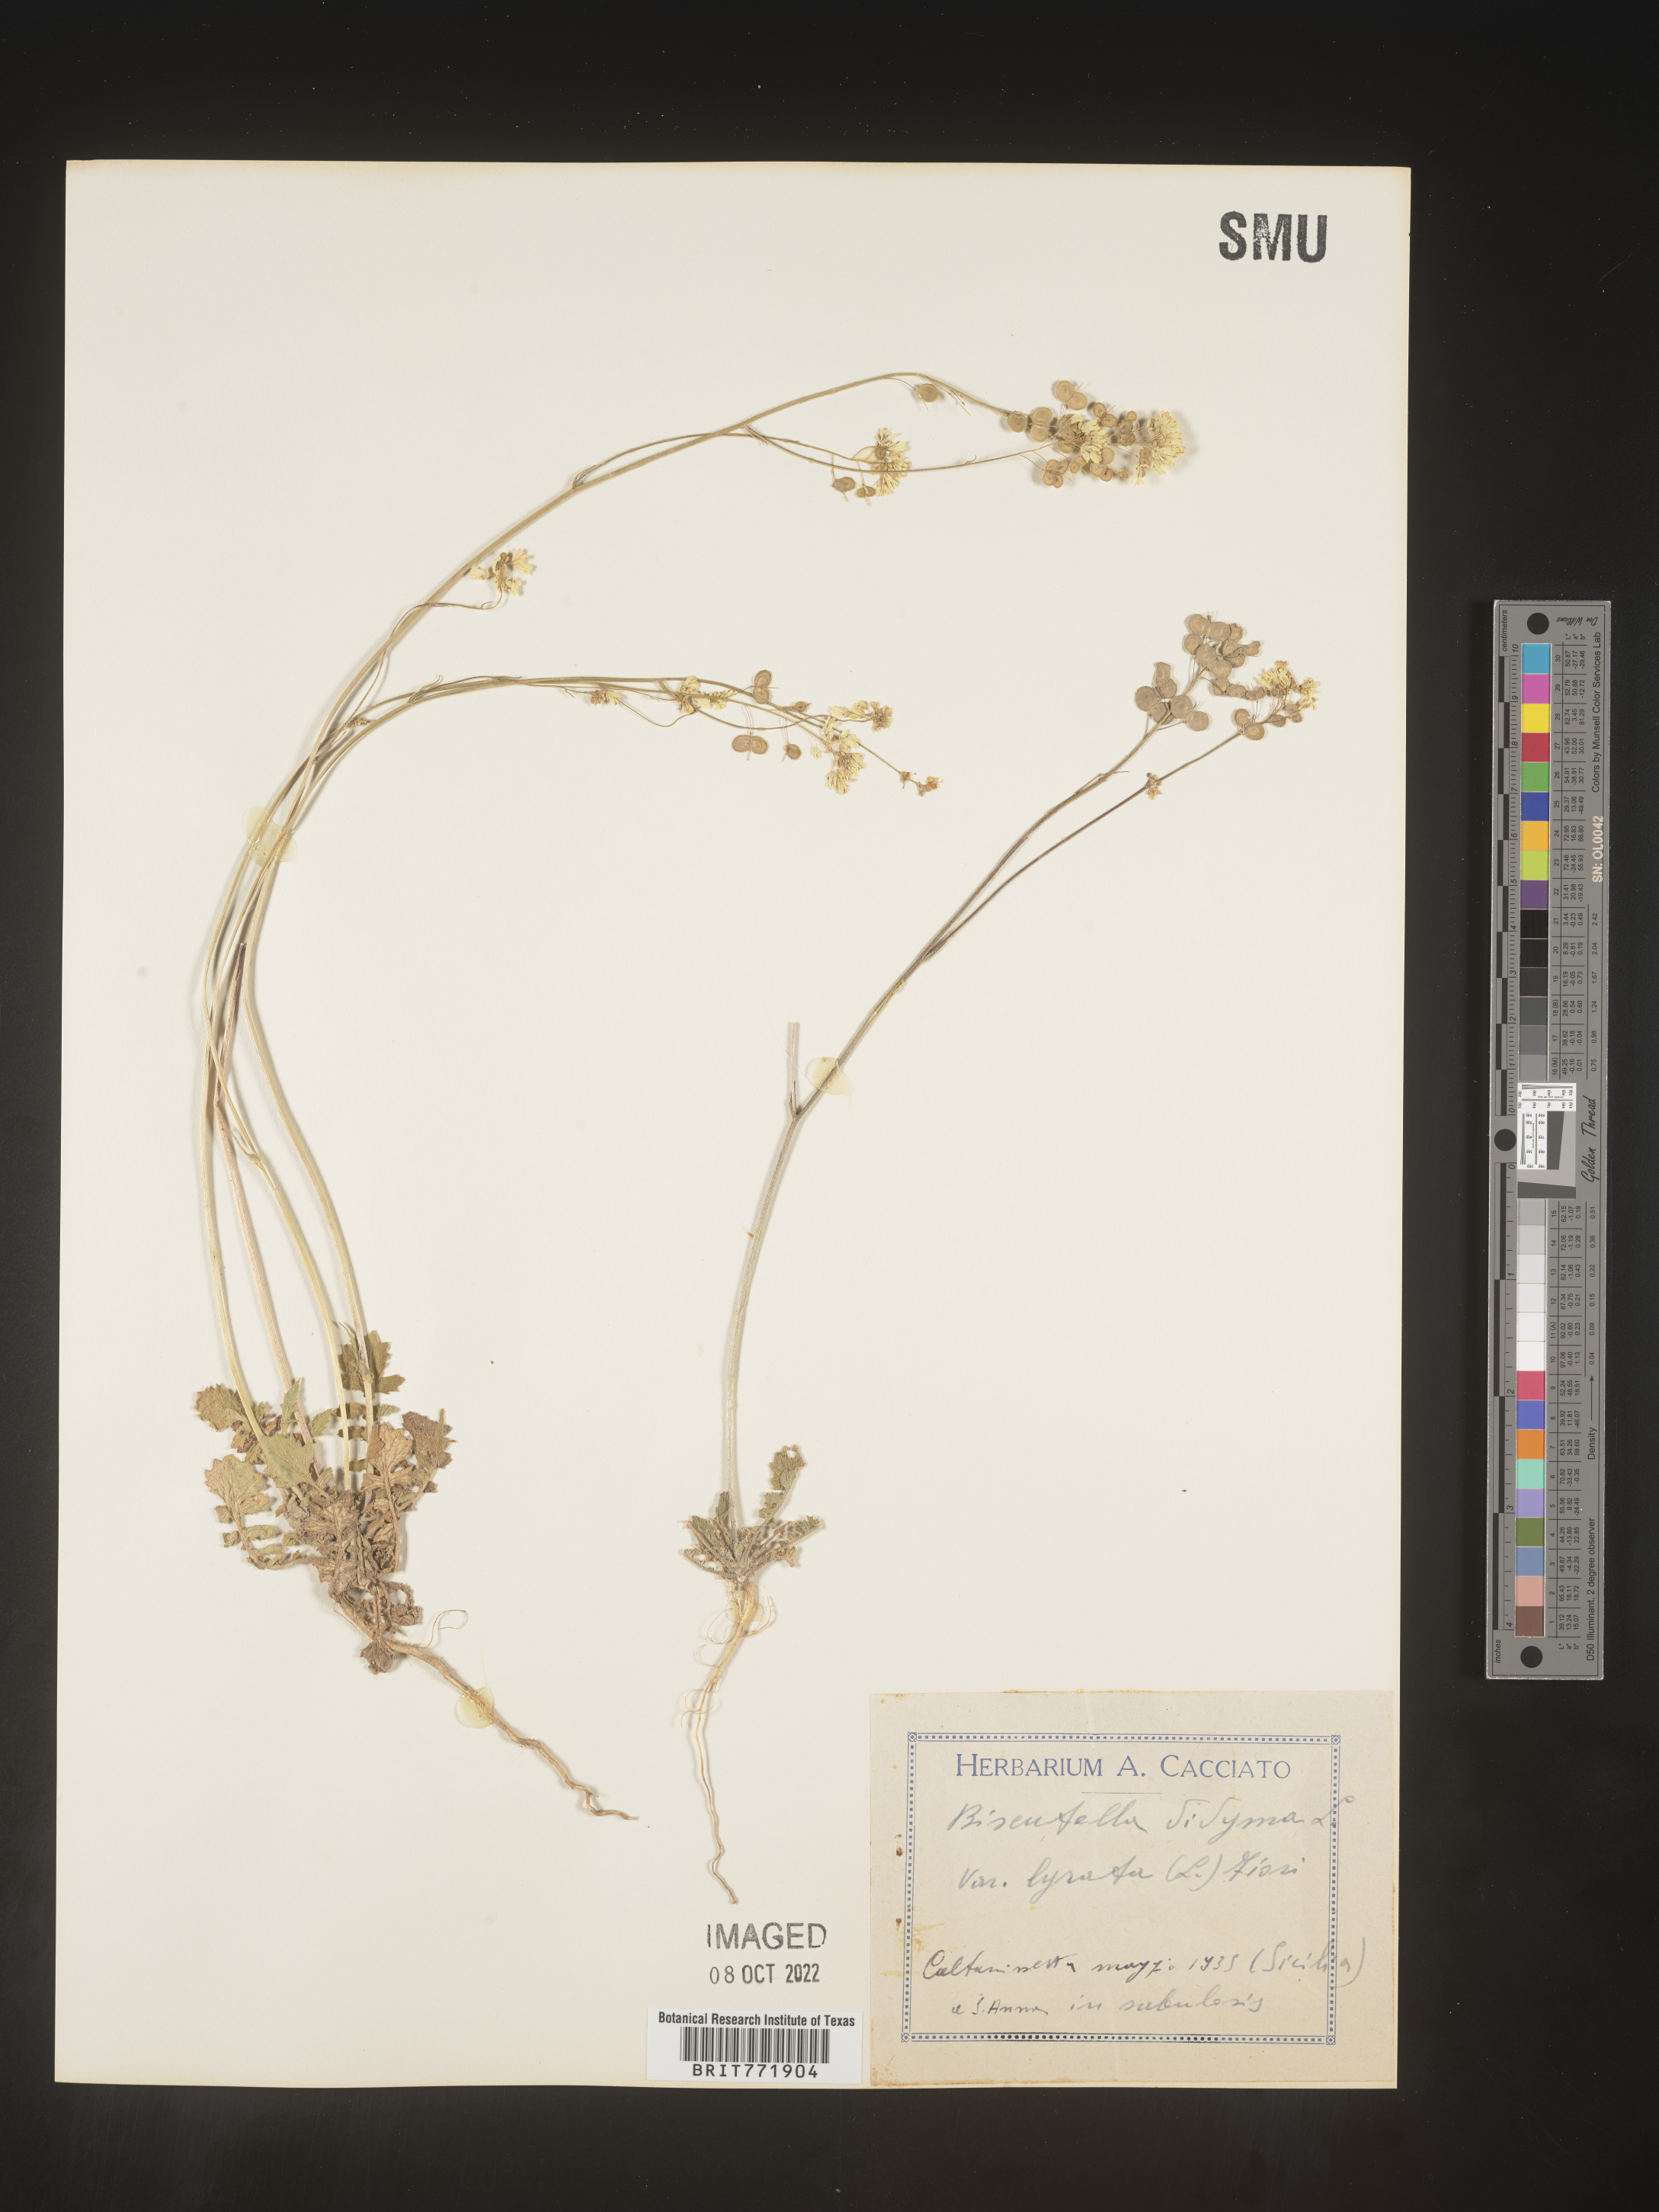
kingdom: Plantae
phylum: Tracheophyta
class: Magnoliopsida
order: Brassicales
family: Brassicaceae
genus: Biscutella
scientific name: Biscutella
